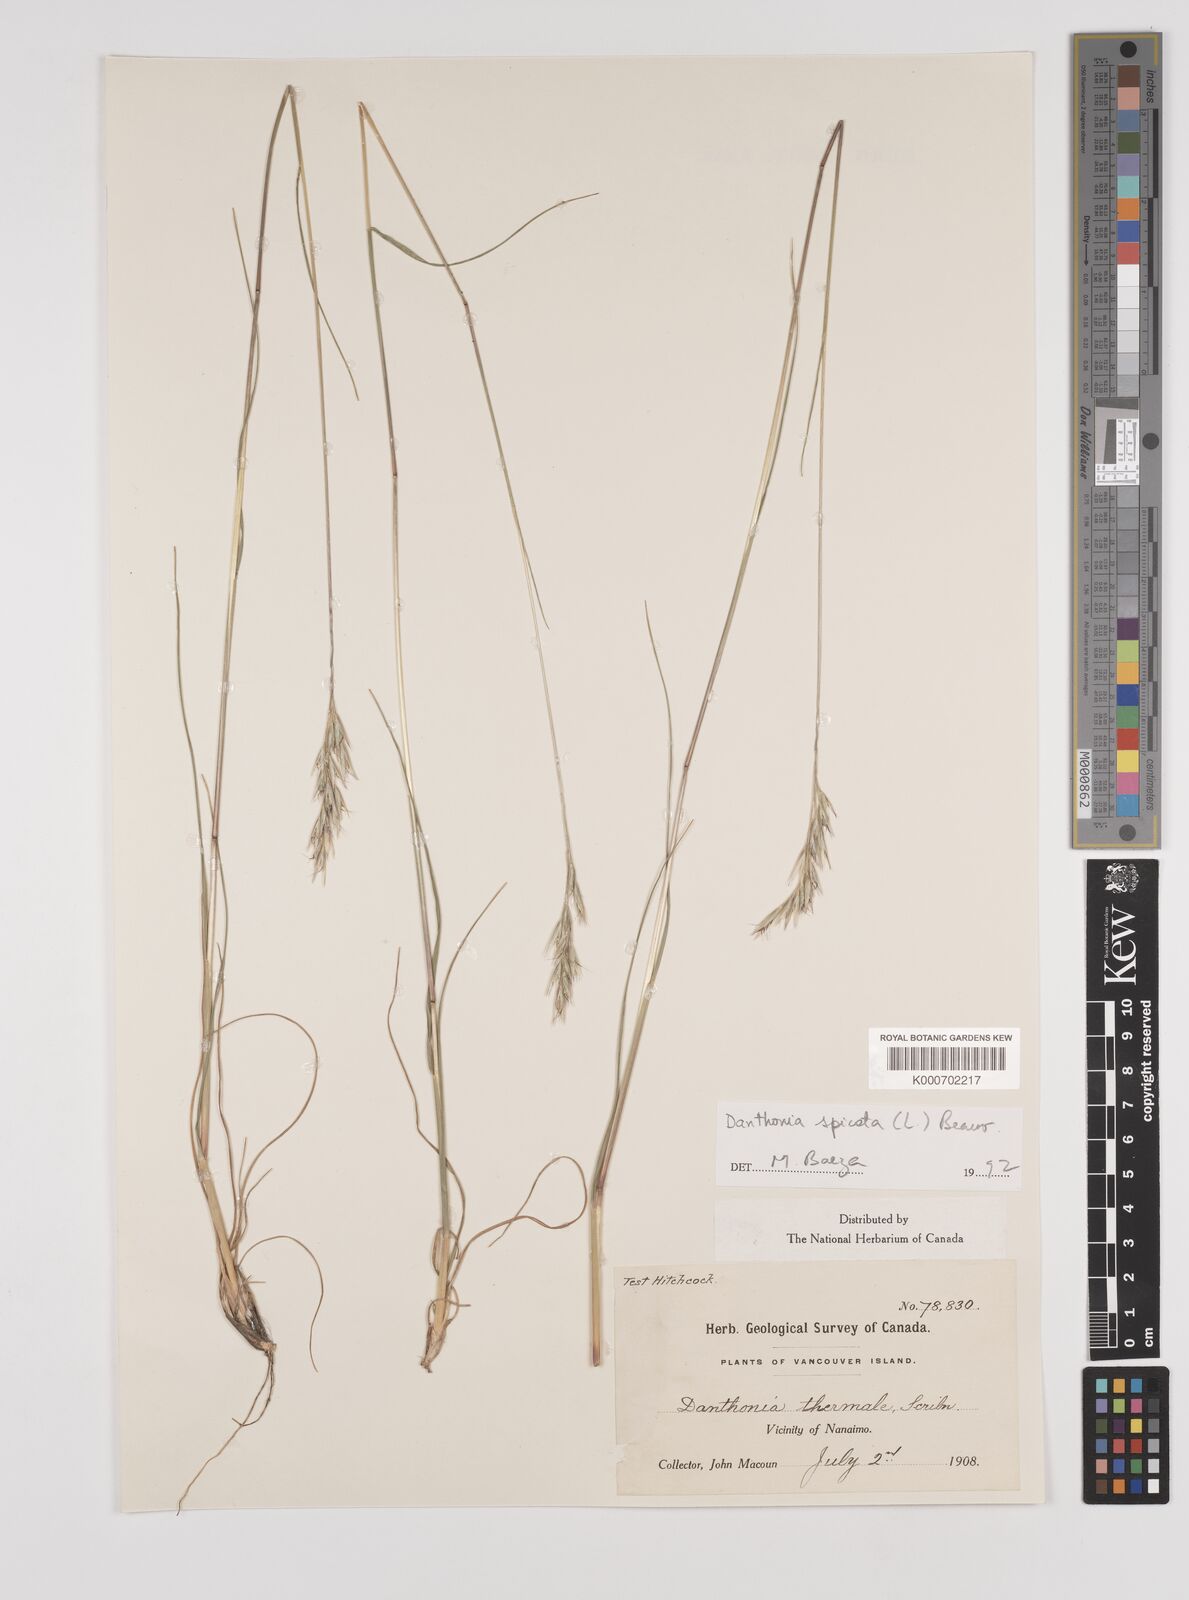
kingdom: Plantae
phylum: Tracheophyta
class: Liliopsida
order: Poales
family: Poaceae
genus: Danthonia
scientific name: Danthonia spicata
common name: Common wild oatgrass
